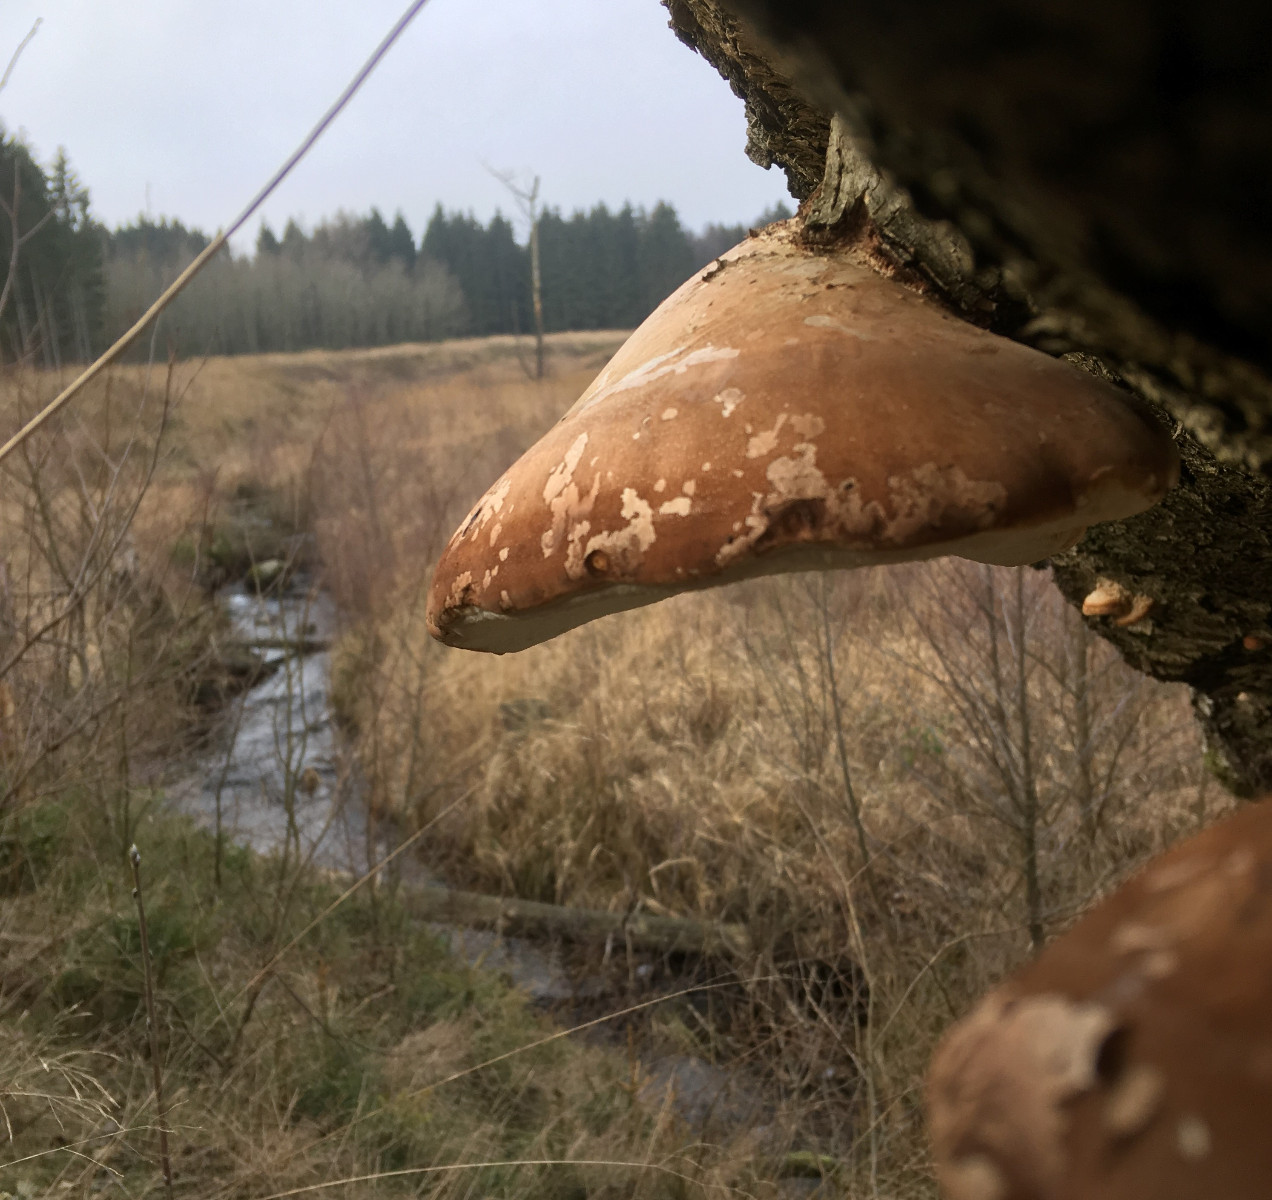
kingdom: Fungi
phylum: Basidiomycota
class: Agaricomycetes
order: Polyporales
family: Fomitopsidaceae
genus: Fomitopsis
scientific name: Fomitopsis betulina
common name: birkeporesvamp
